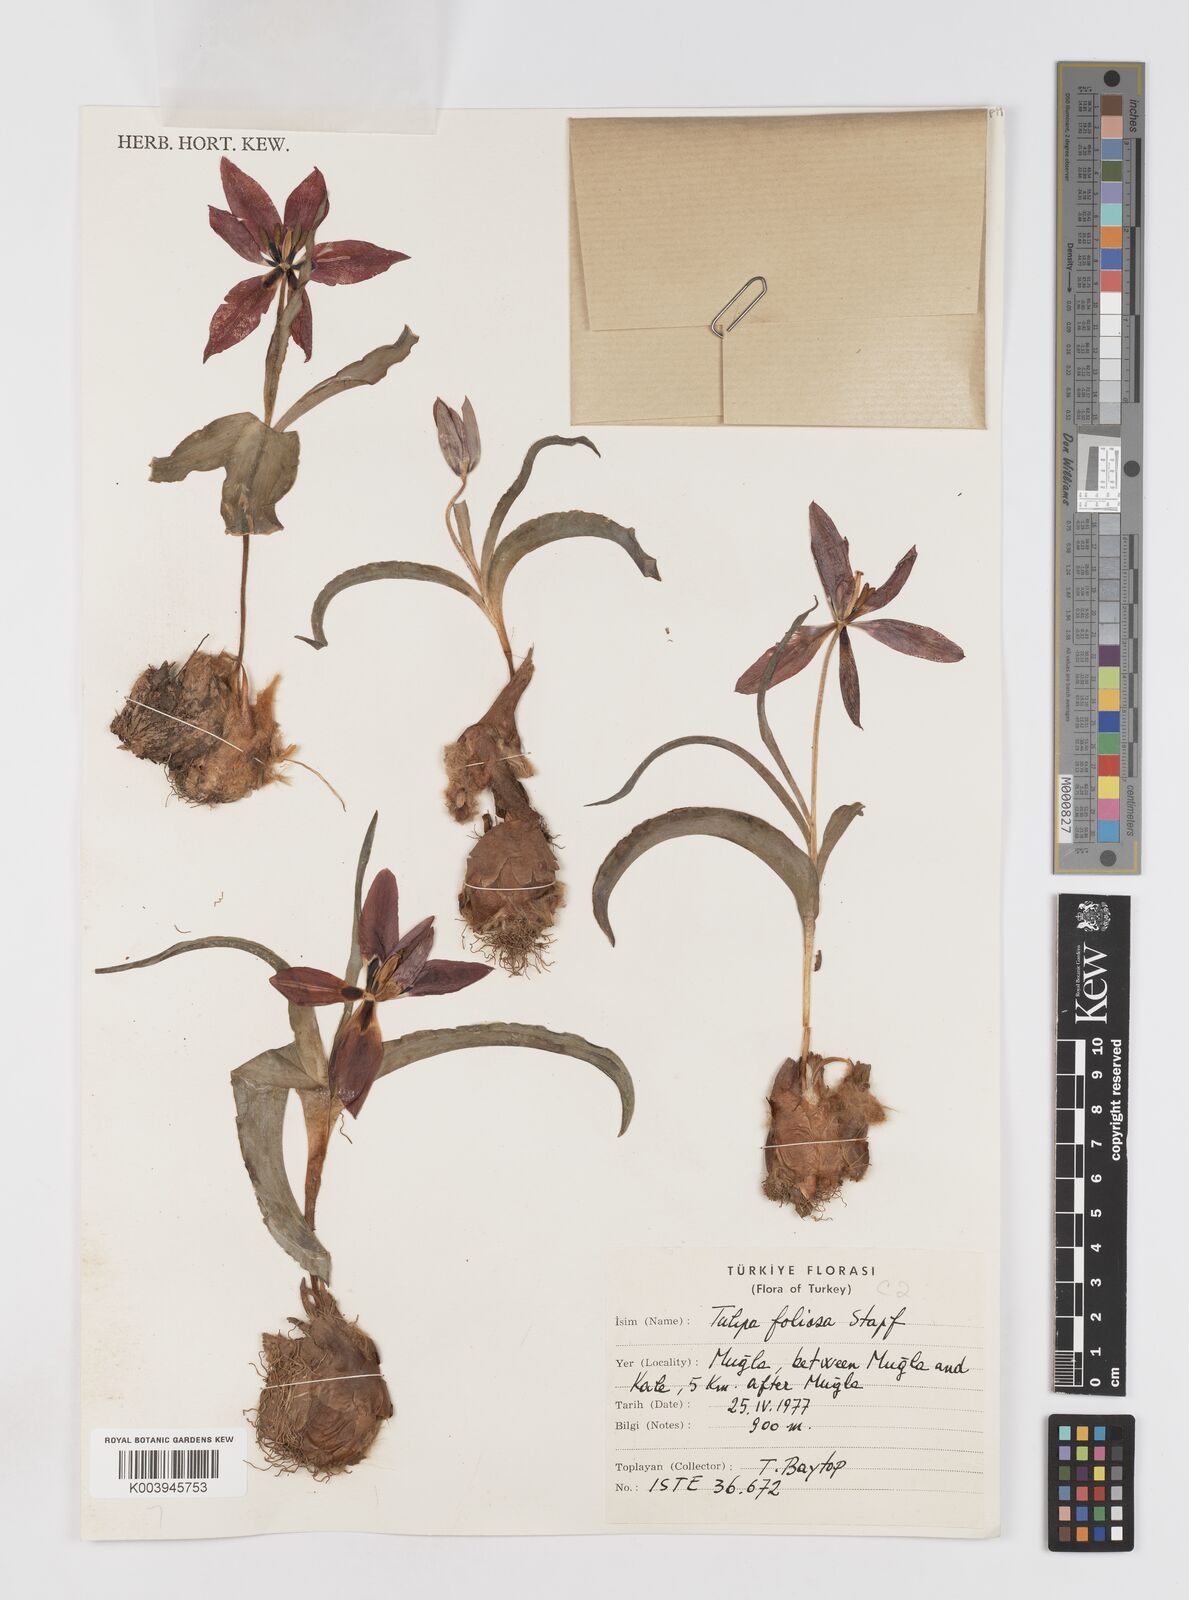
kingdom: Plantae
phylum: Tracheophyta
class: Liliopsida
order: Liliales
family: Liliaceae
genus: Tulipa
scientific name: Tulipa armena
